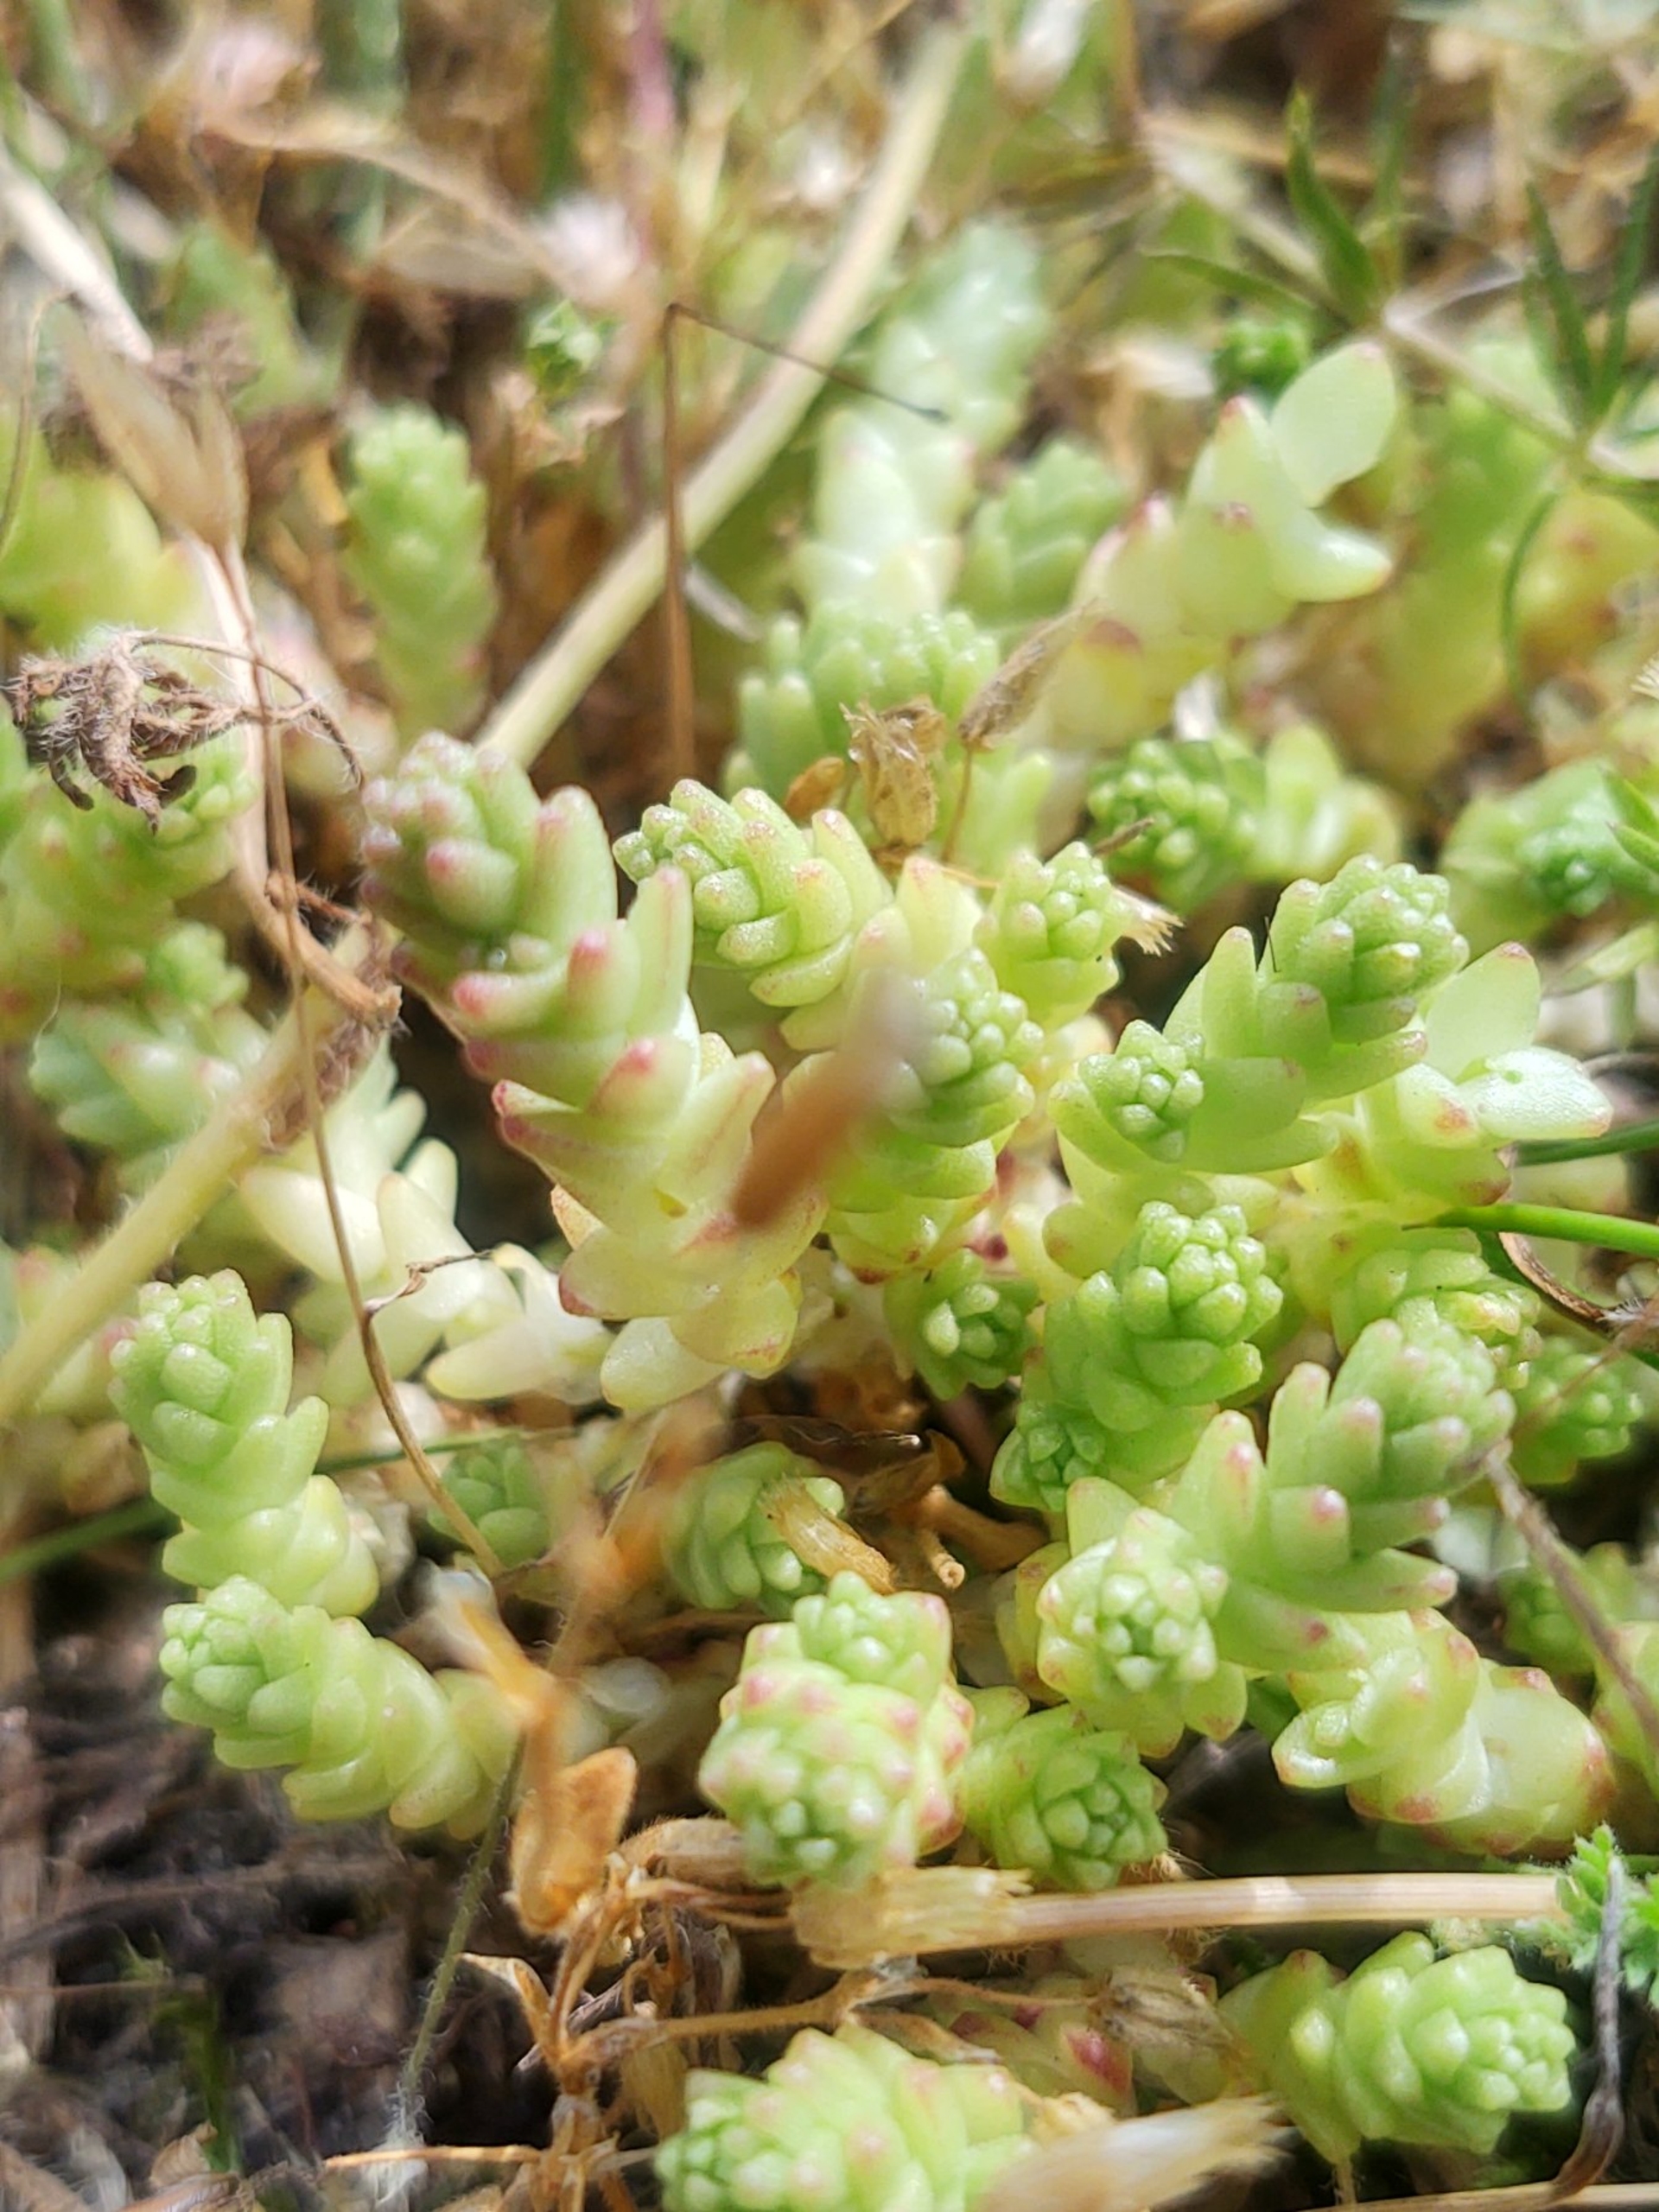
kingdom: Plantae
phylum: Tracheophyta
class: Magnoliopsida
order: Saxifragales
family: Crassulaceae
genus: Sedum
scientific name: Sedum acre
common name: Bidende stenurt
